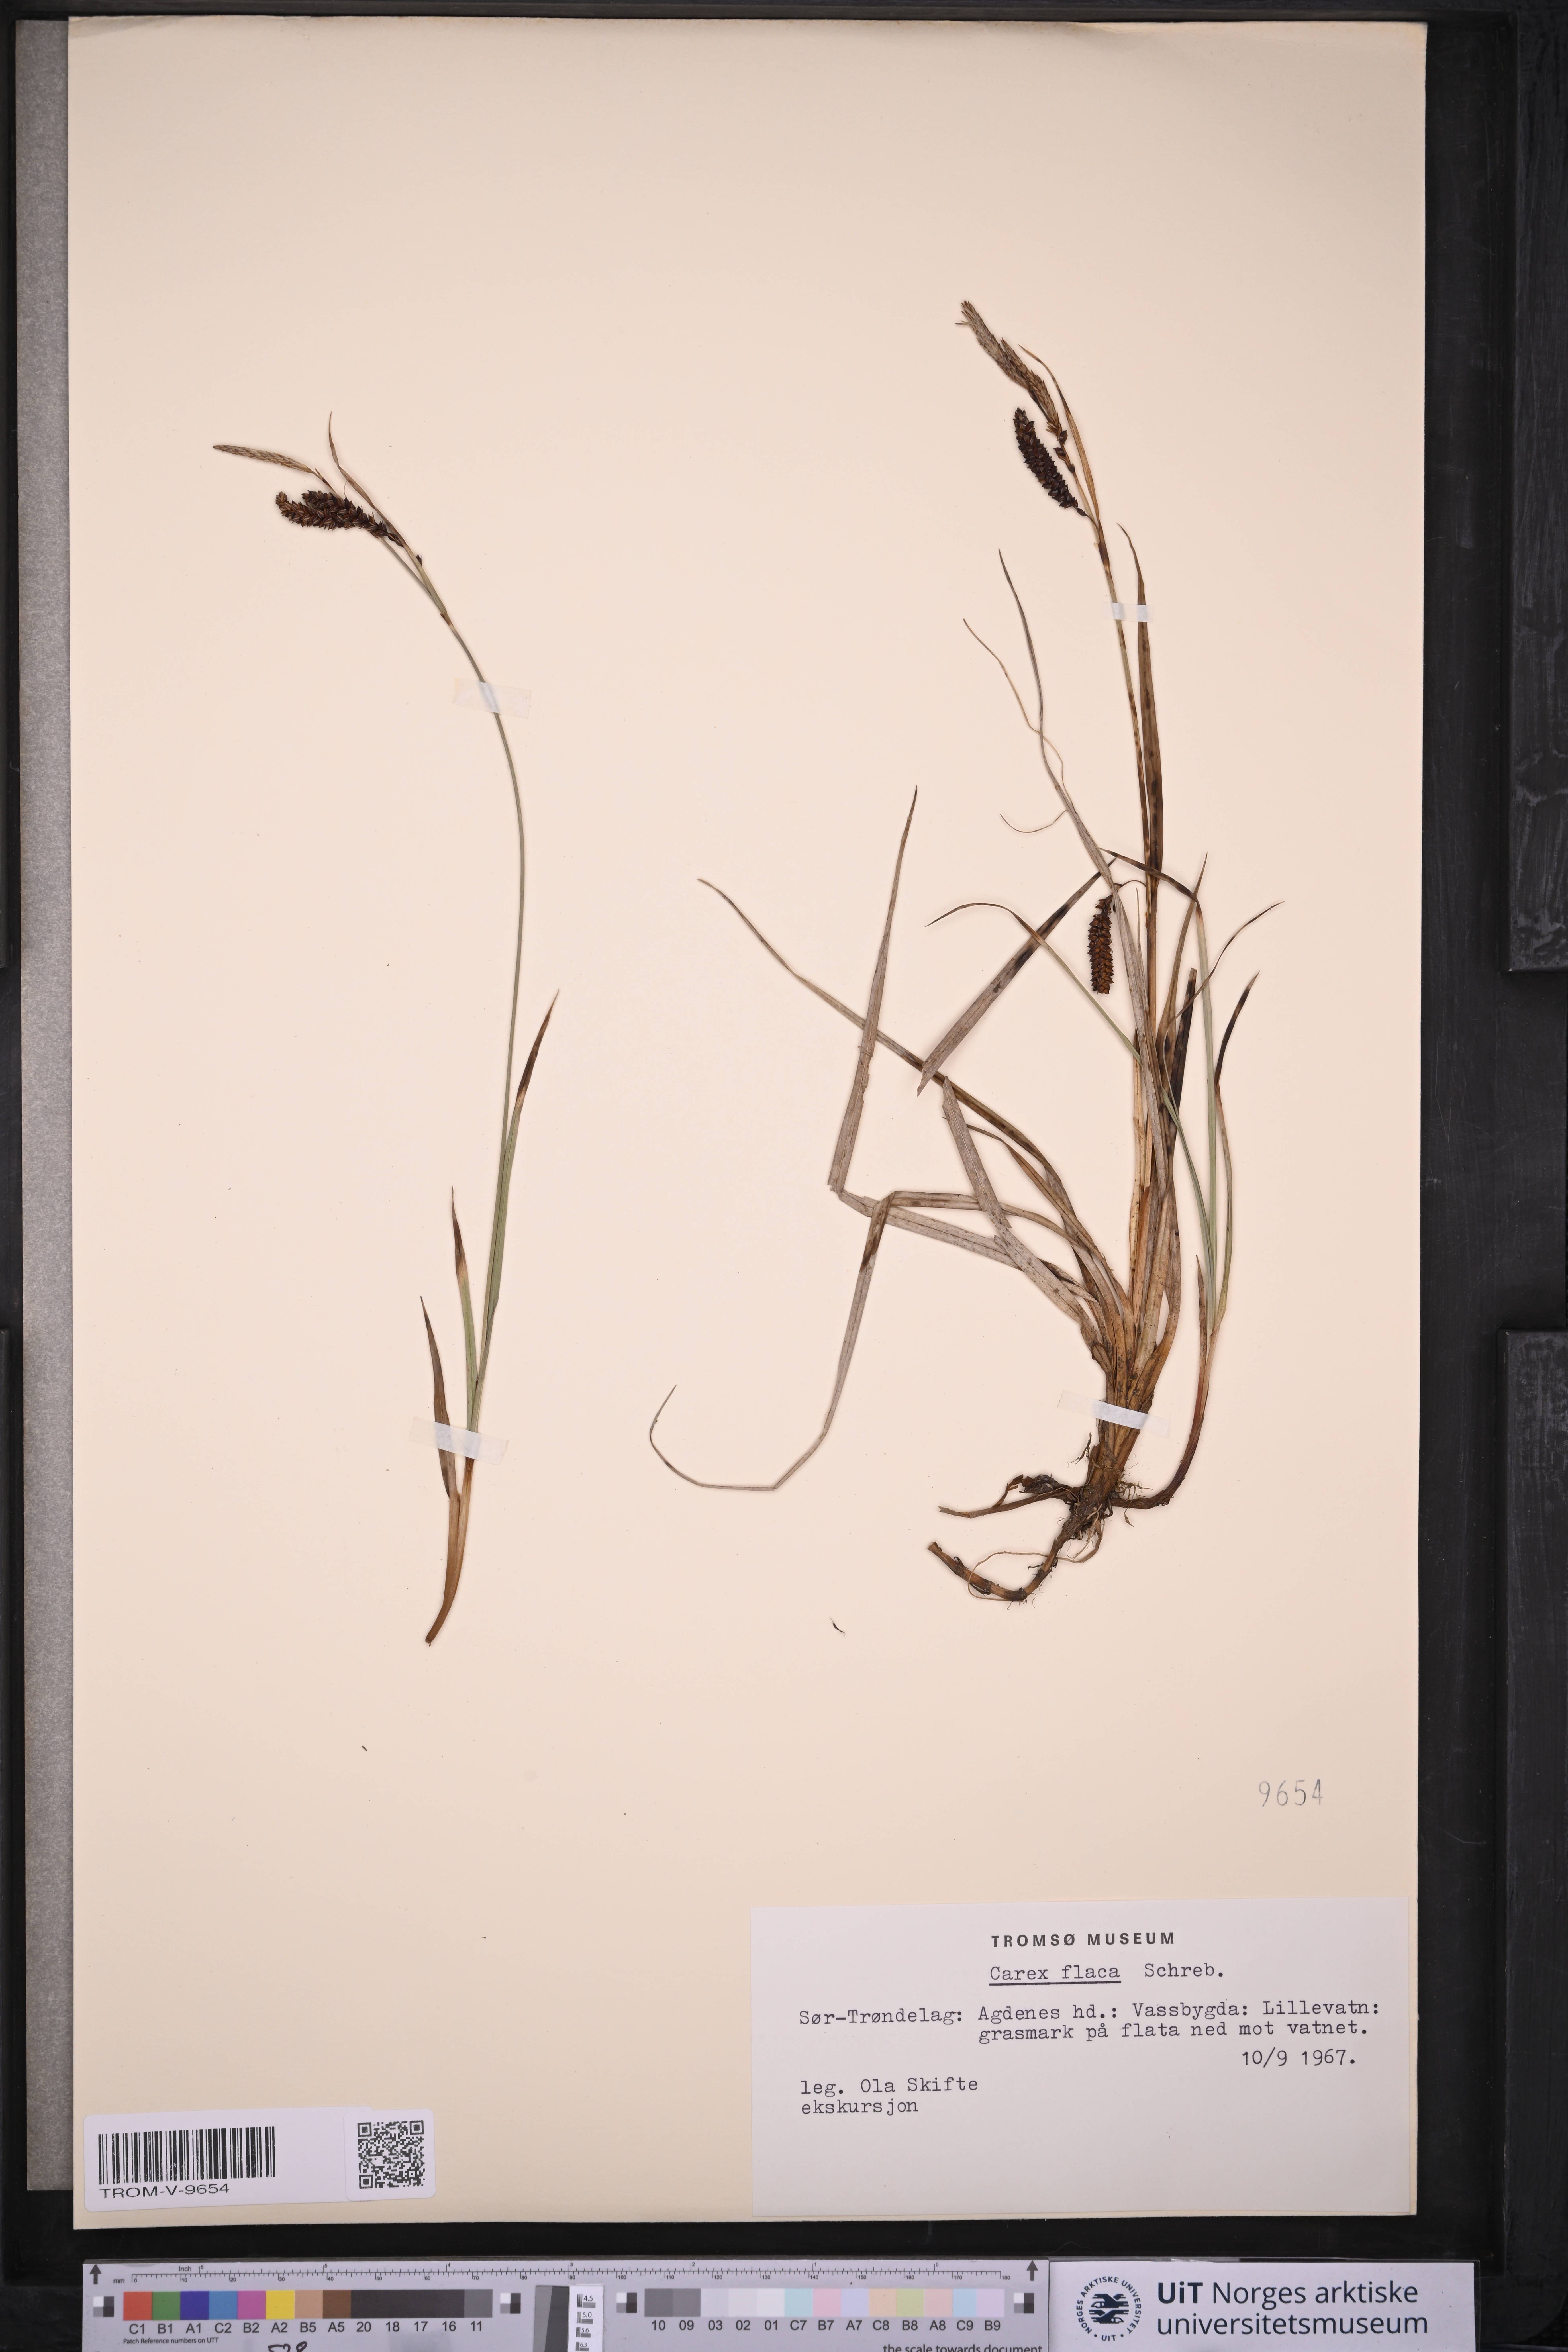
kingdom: Plantae
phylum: Tracheophyta
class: Liliopsida
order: Poales
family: Cyperaceae
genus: Carex
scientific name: Carex flacca
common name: Glaucous sedge
